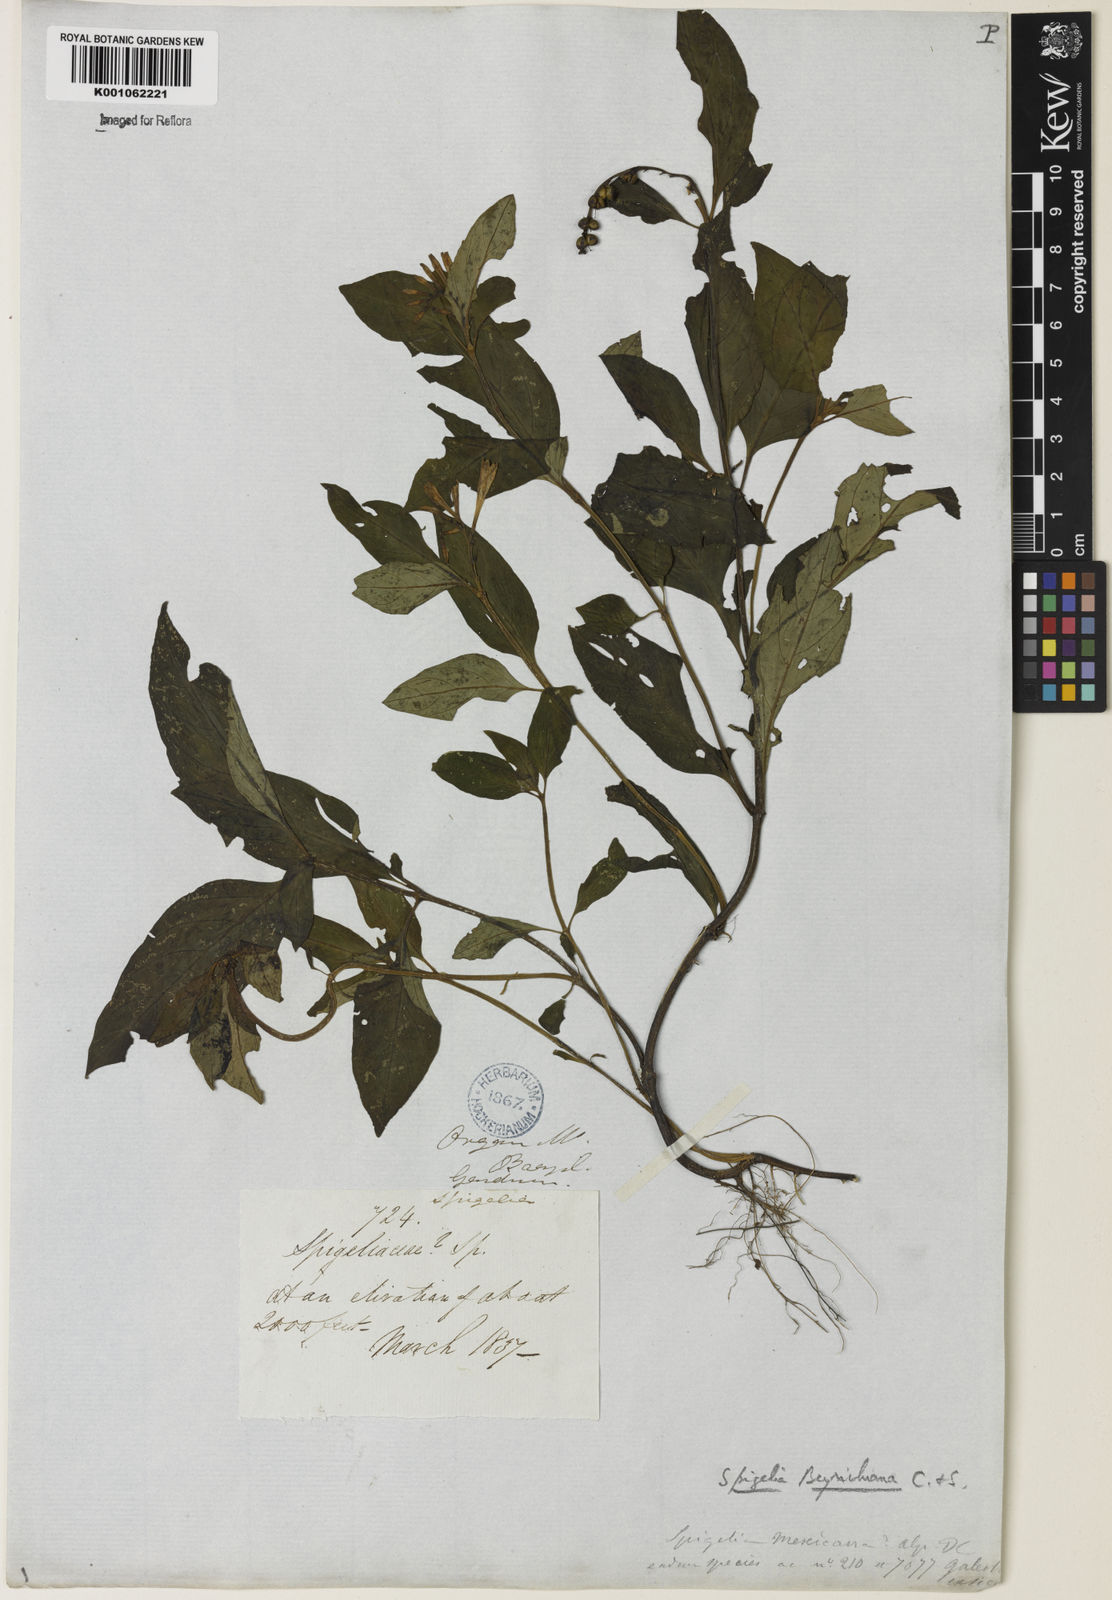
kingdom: Plantae
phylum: Tracheophyta
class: Magnoliopsida
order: Gentianales
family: Loganiaceae
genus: Spigelia
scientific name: Spigelia beyrichiana
